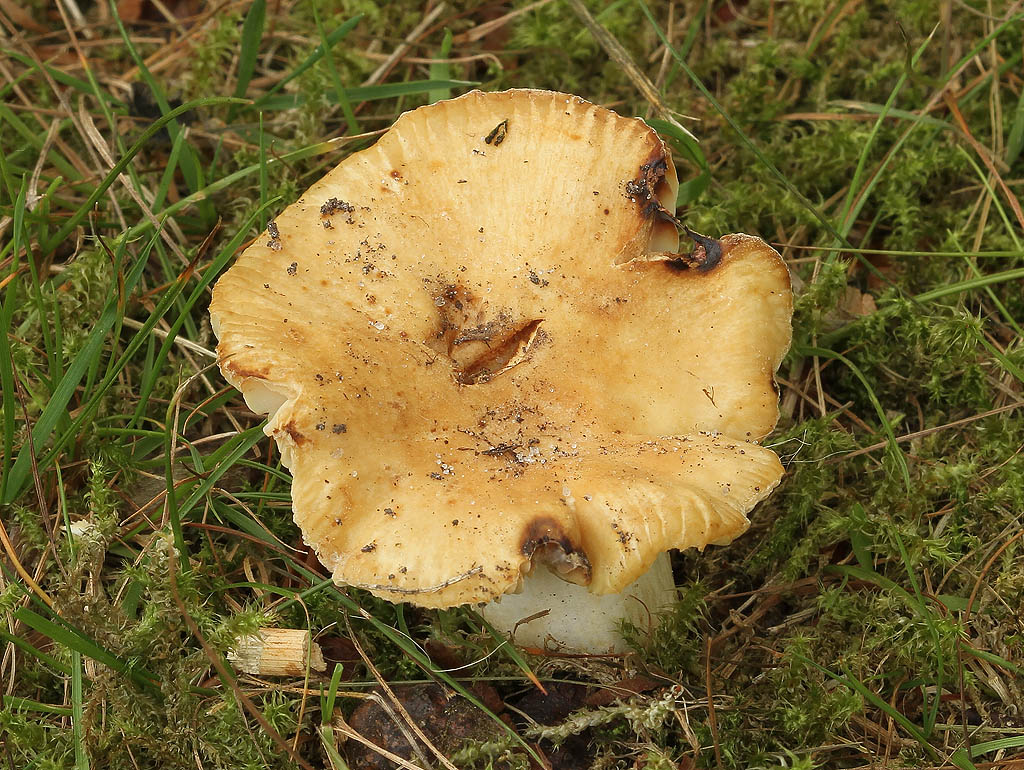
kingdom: Fungi
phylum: Basidiomycota
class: Agaricomycetes
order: Russulales
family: Russulaceae
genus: Russula
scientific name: Russula farinipes
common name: gul kam-skørhat
